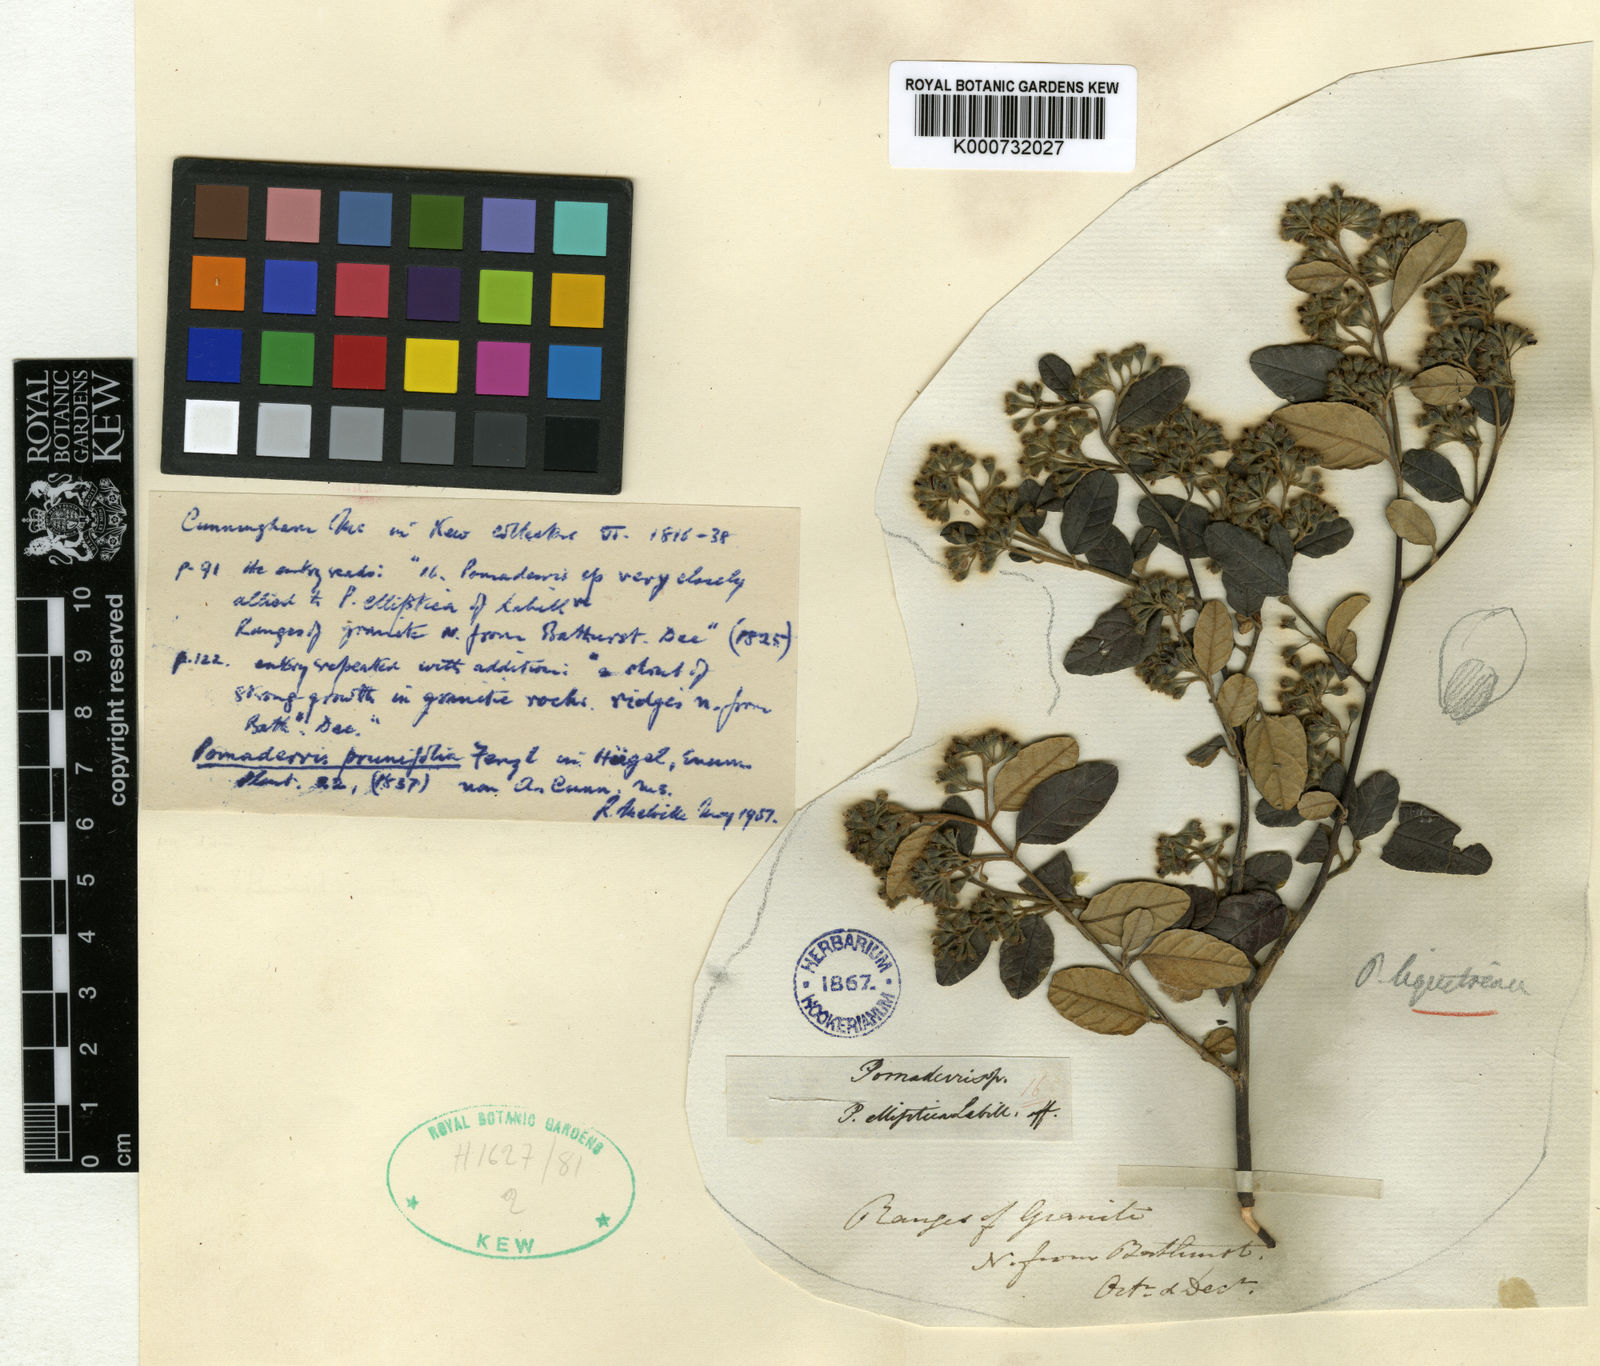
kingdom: Plantae
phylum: Tracheophyta
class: Magnoliopsida
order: Rosales
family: Rhamnaceae
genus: Pomaderris
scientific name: Pomaderris prunifolia
